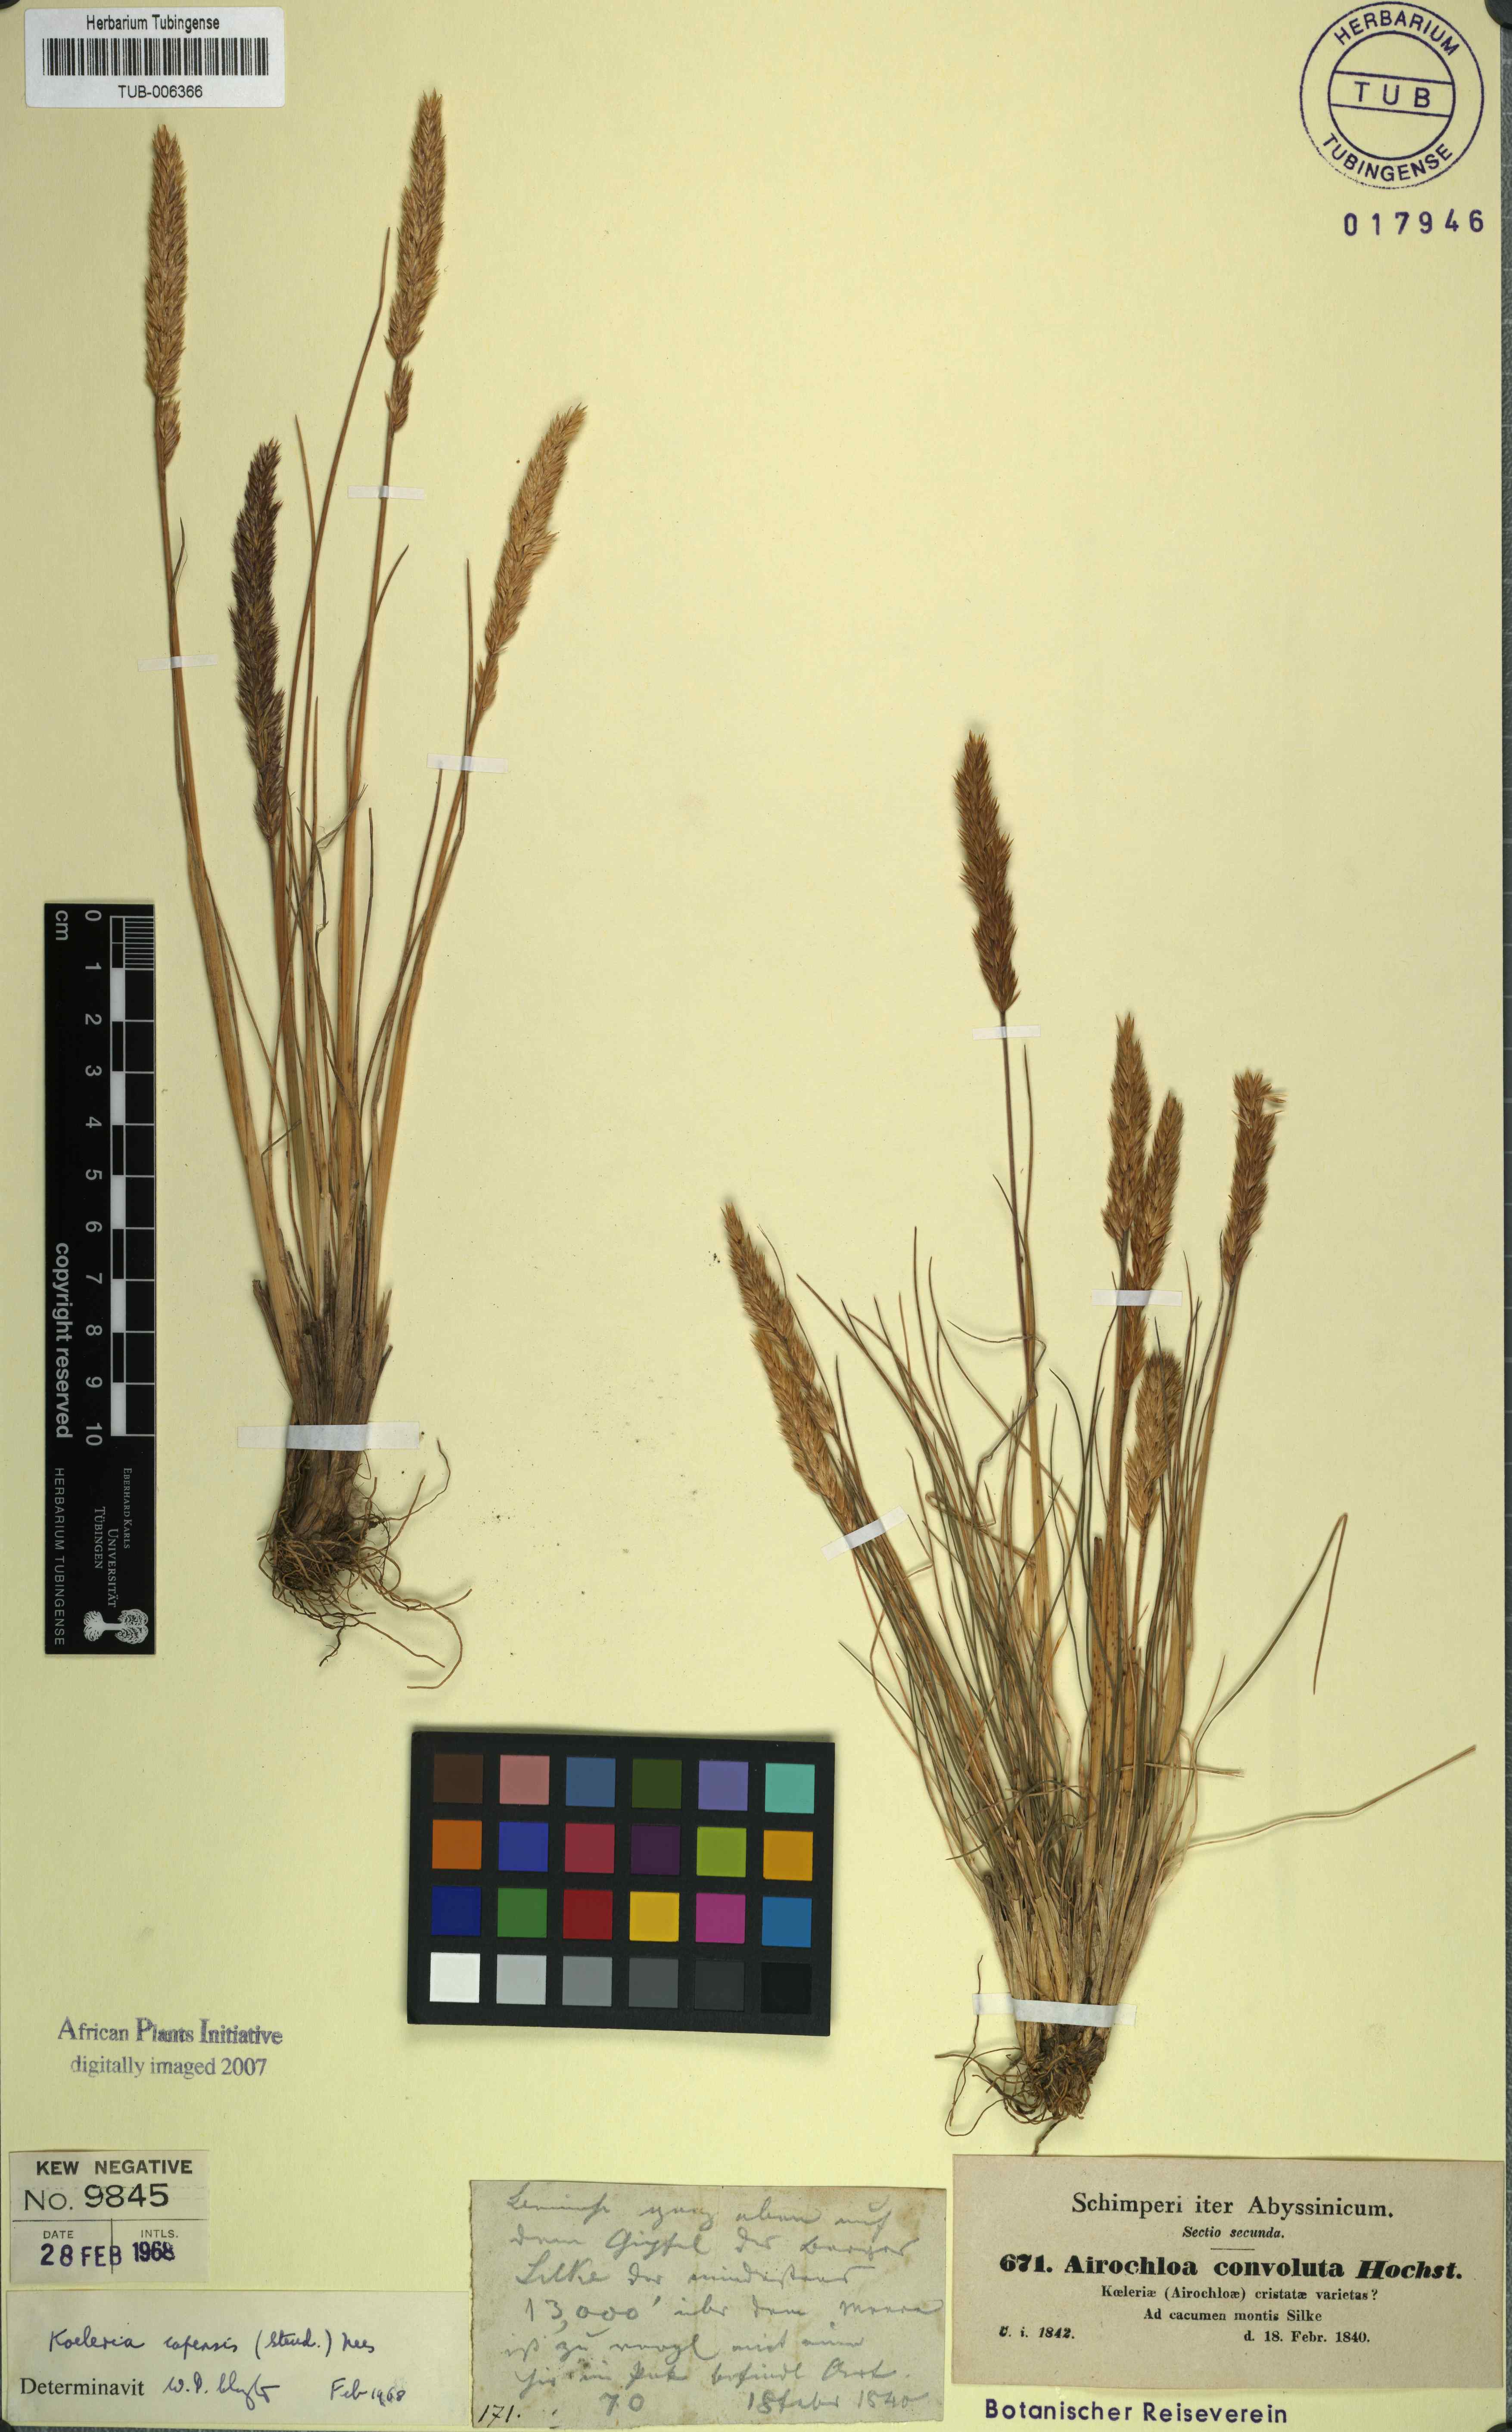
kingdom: Plantae
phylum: Tracheophyta
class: Liliopsida
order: Poales
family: Poaceae
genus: Koeleria
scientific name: Koeleria capensis
